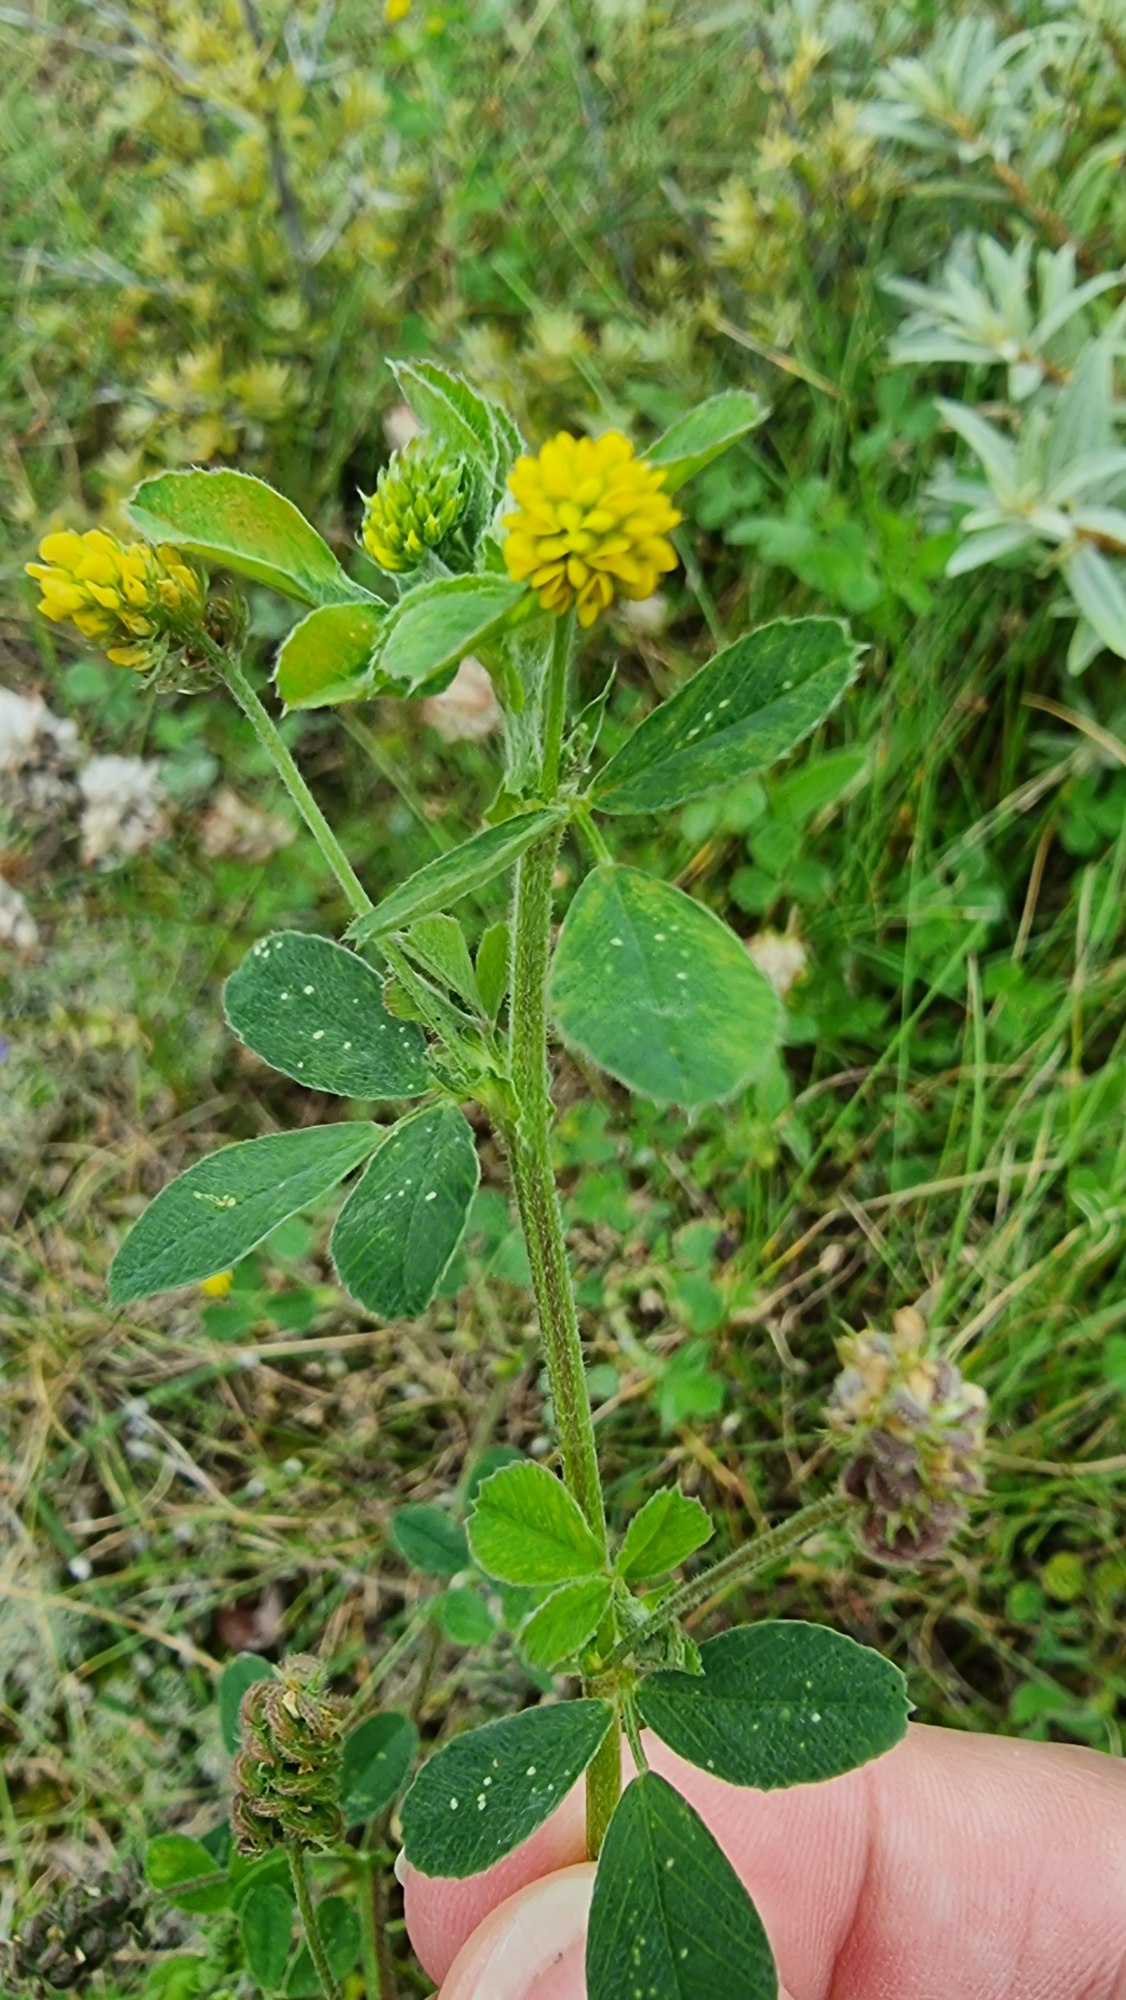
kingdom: Plantae
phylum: Tracheophyta
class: Magnoliopsida
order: Fabales
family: Fabaceae
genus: Medicago
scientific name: Medicago lupulina
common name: Humle-sneglebælg
